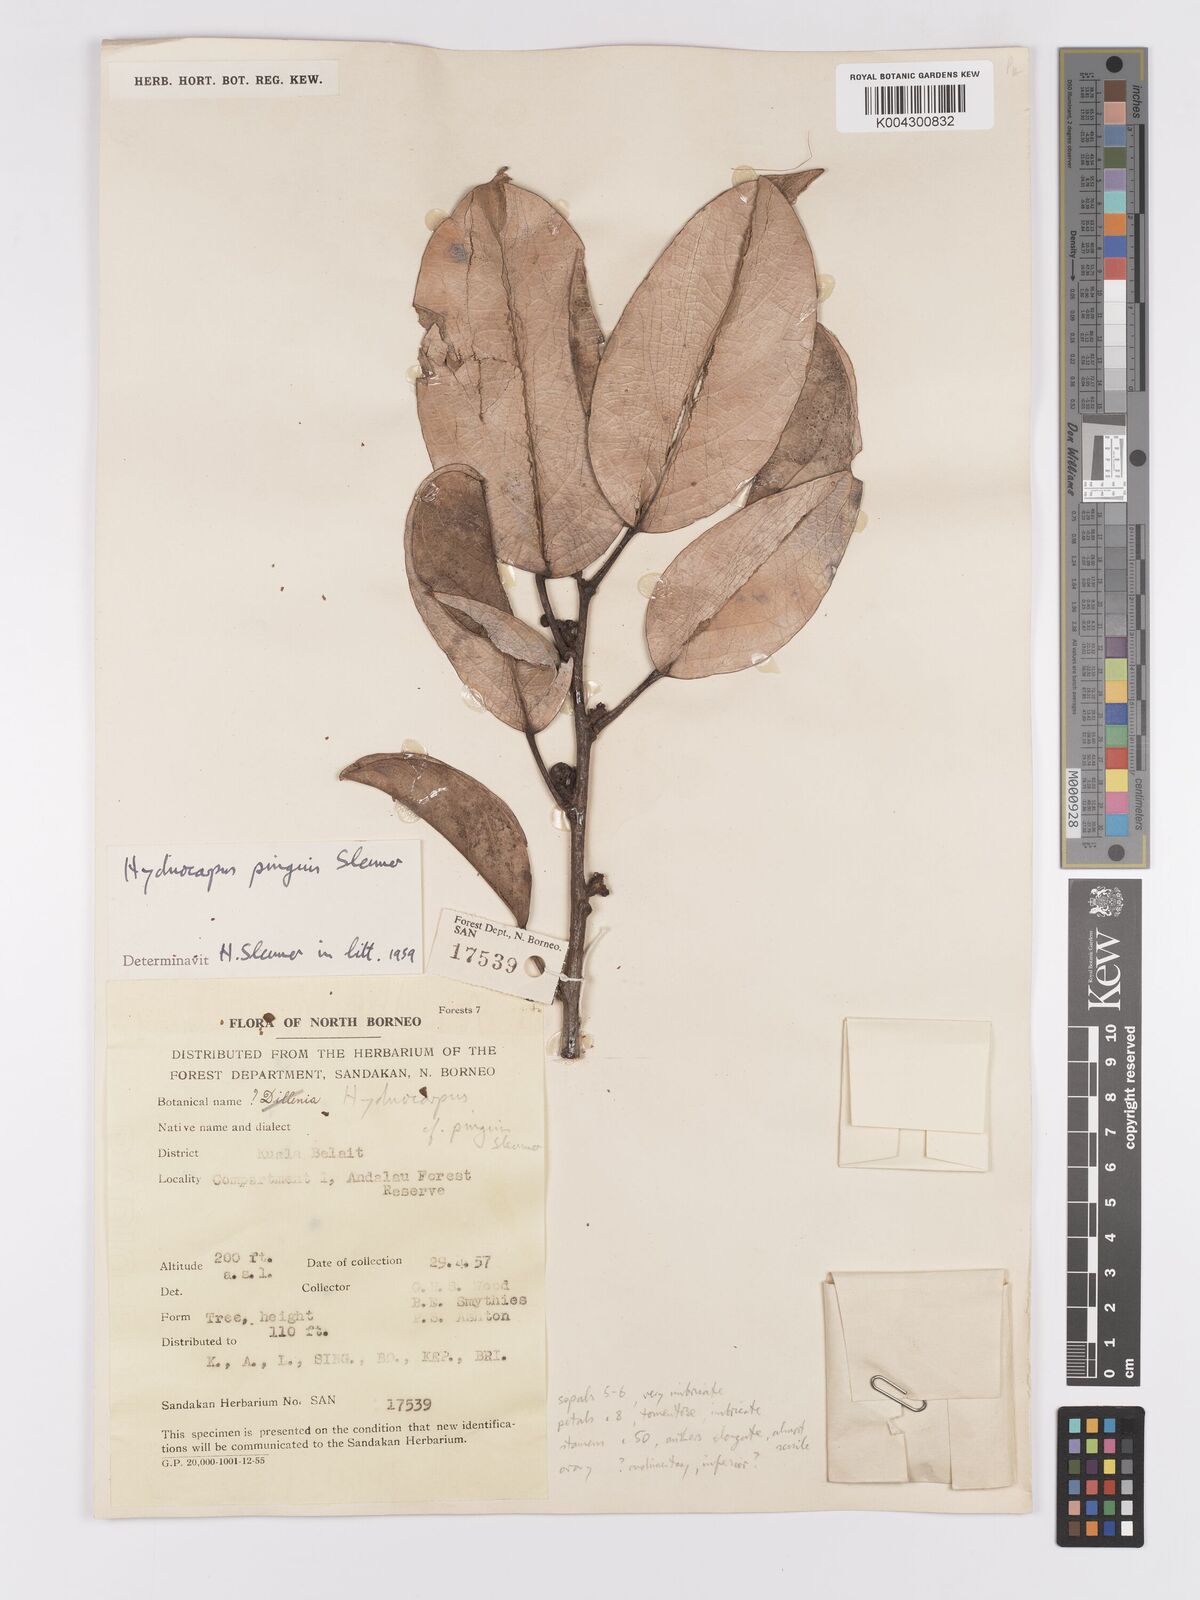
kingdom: Plantae
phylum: Tracheophyta
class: Magnoliopsida
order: Malpighiales
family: Achariaceae
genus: Hydnocarpus
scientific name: Hydnocarpus pinguis
